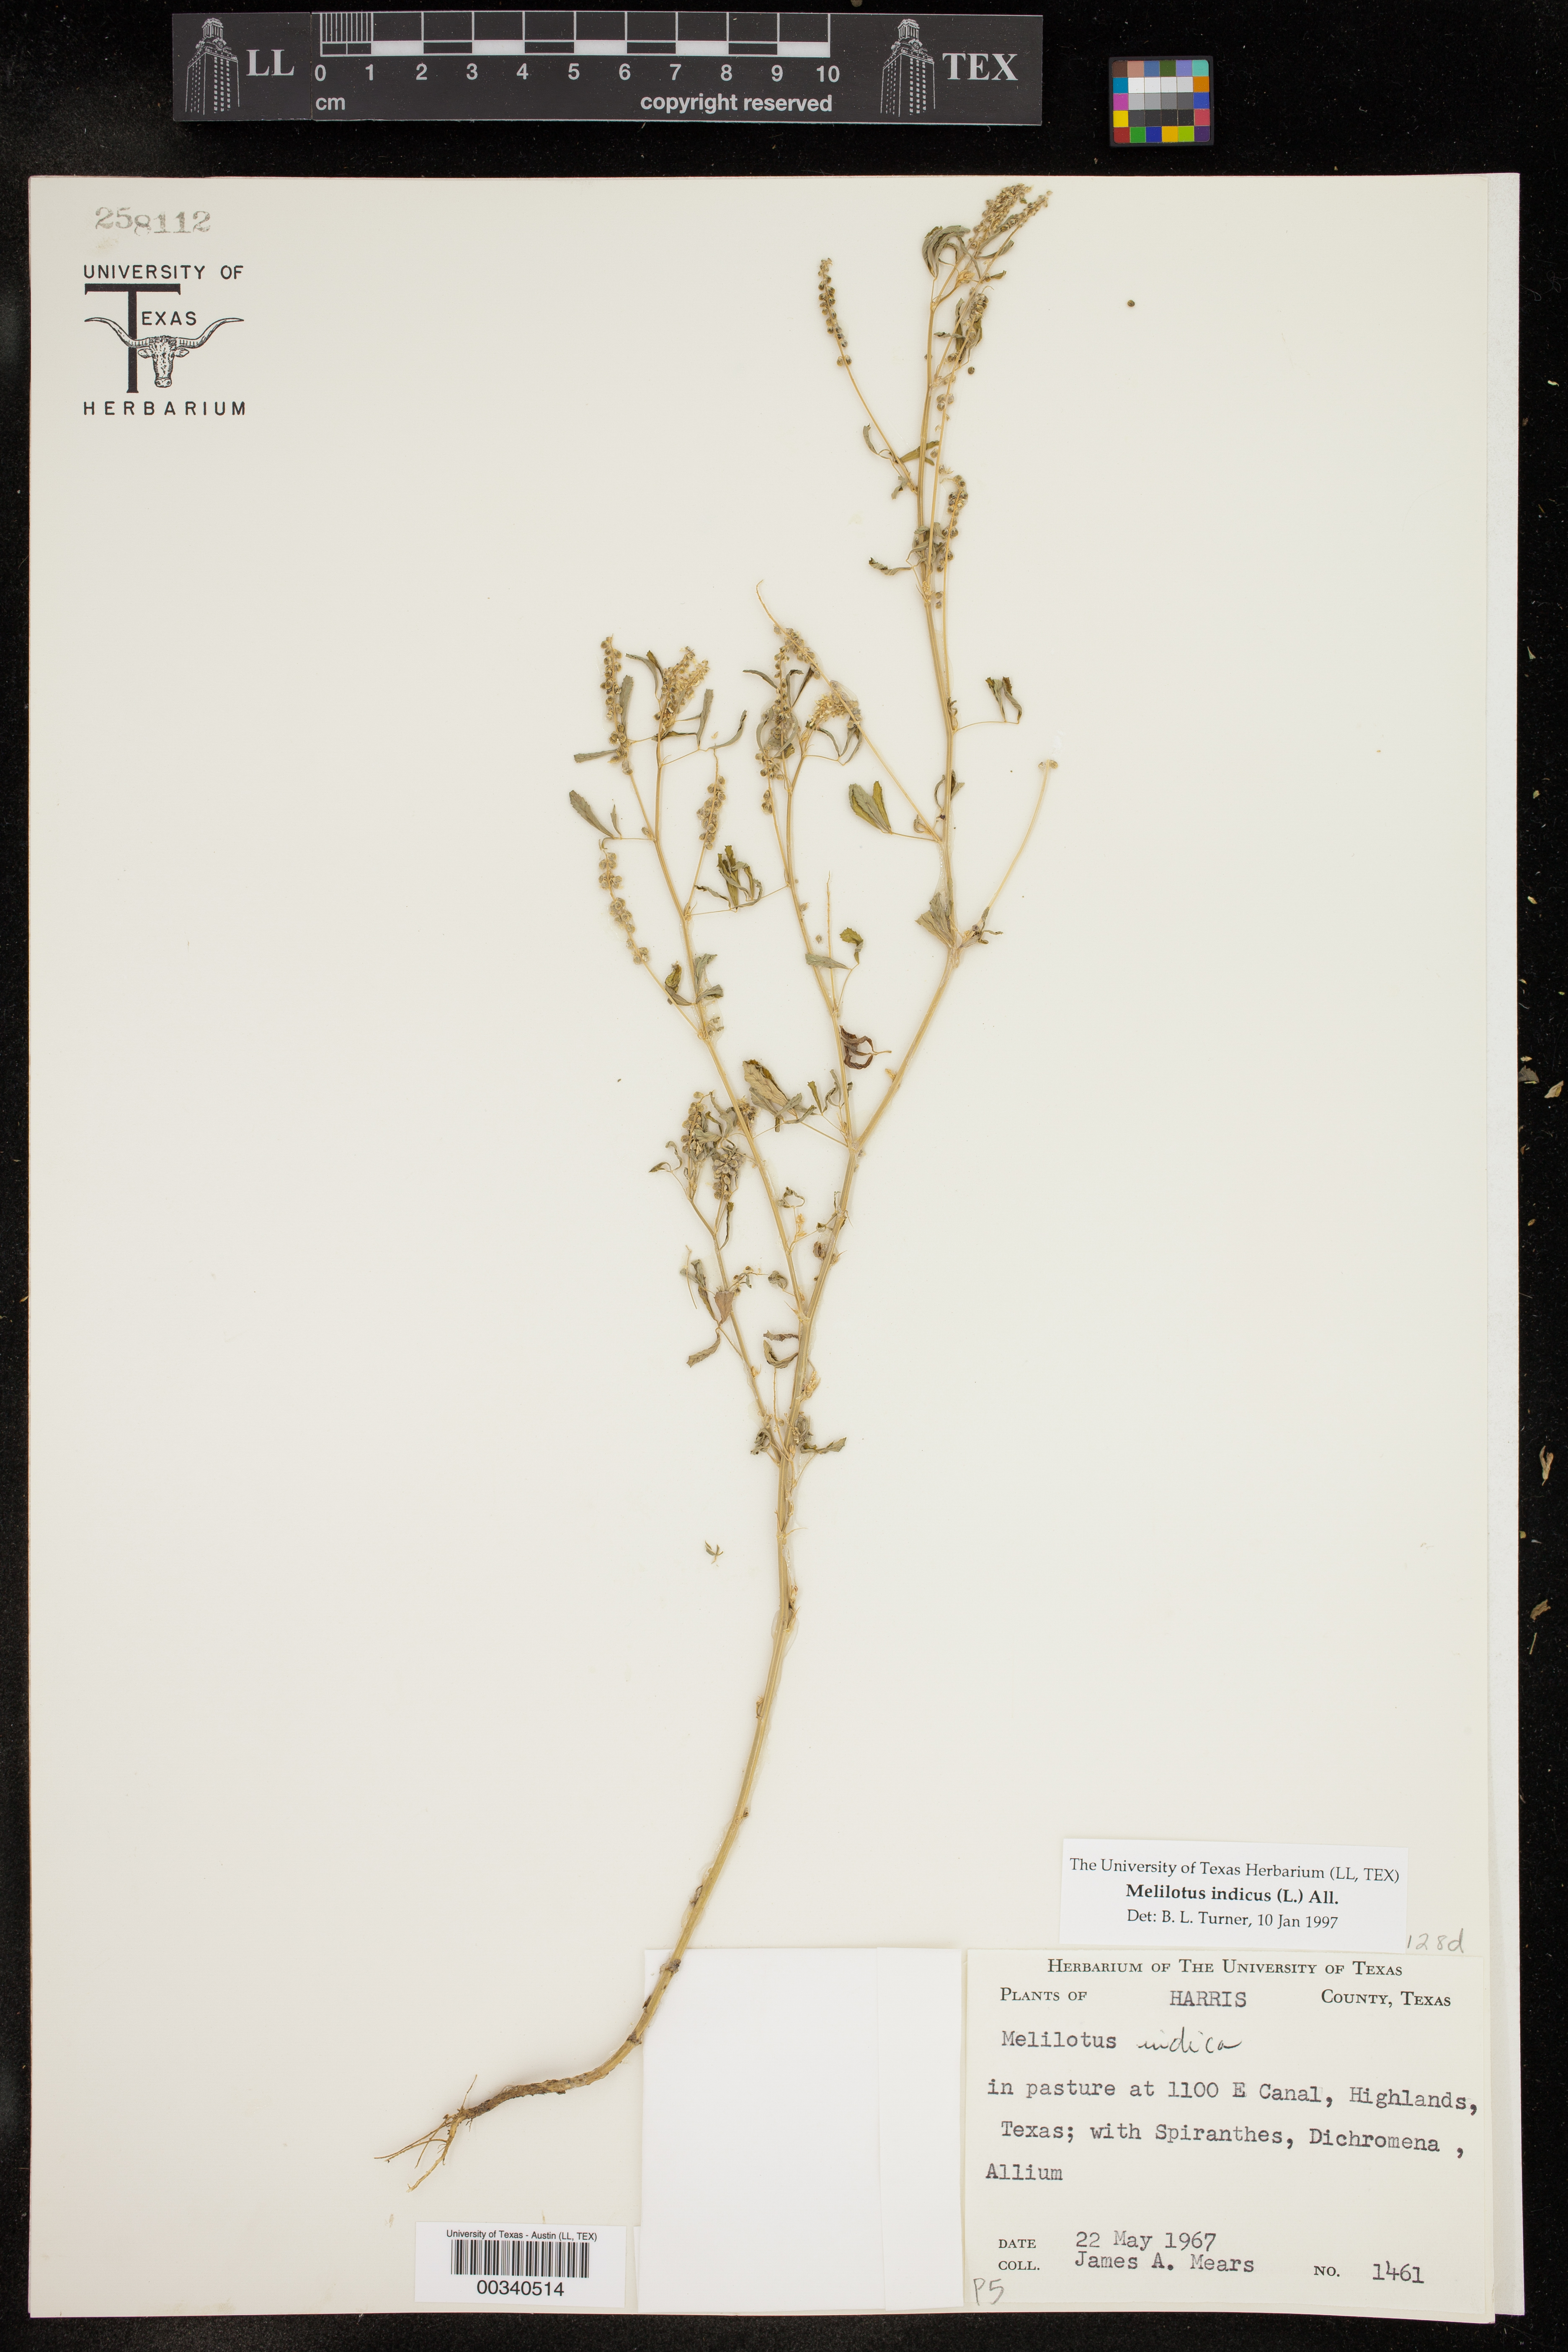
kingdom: Plantae
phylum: Tracheophyta
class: Magnoliopsida
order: Fabales
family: Fabaceae
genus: Melilotus
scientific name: Melilotus indicus
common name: Small melilot
